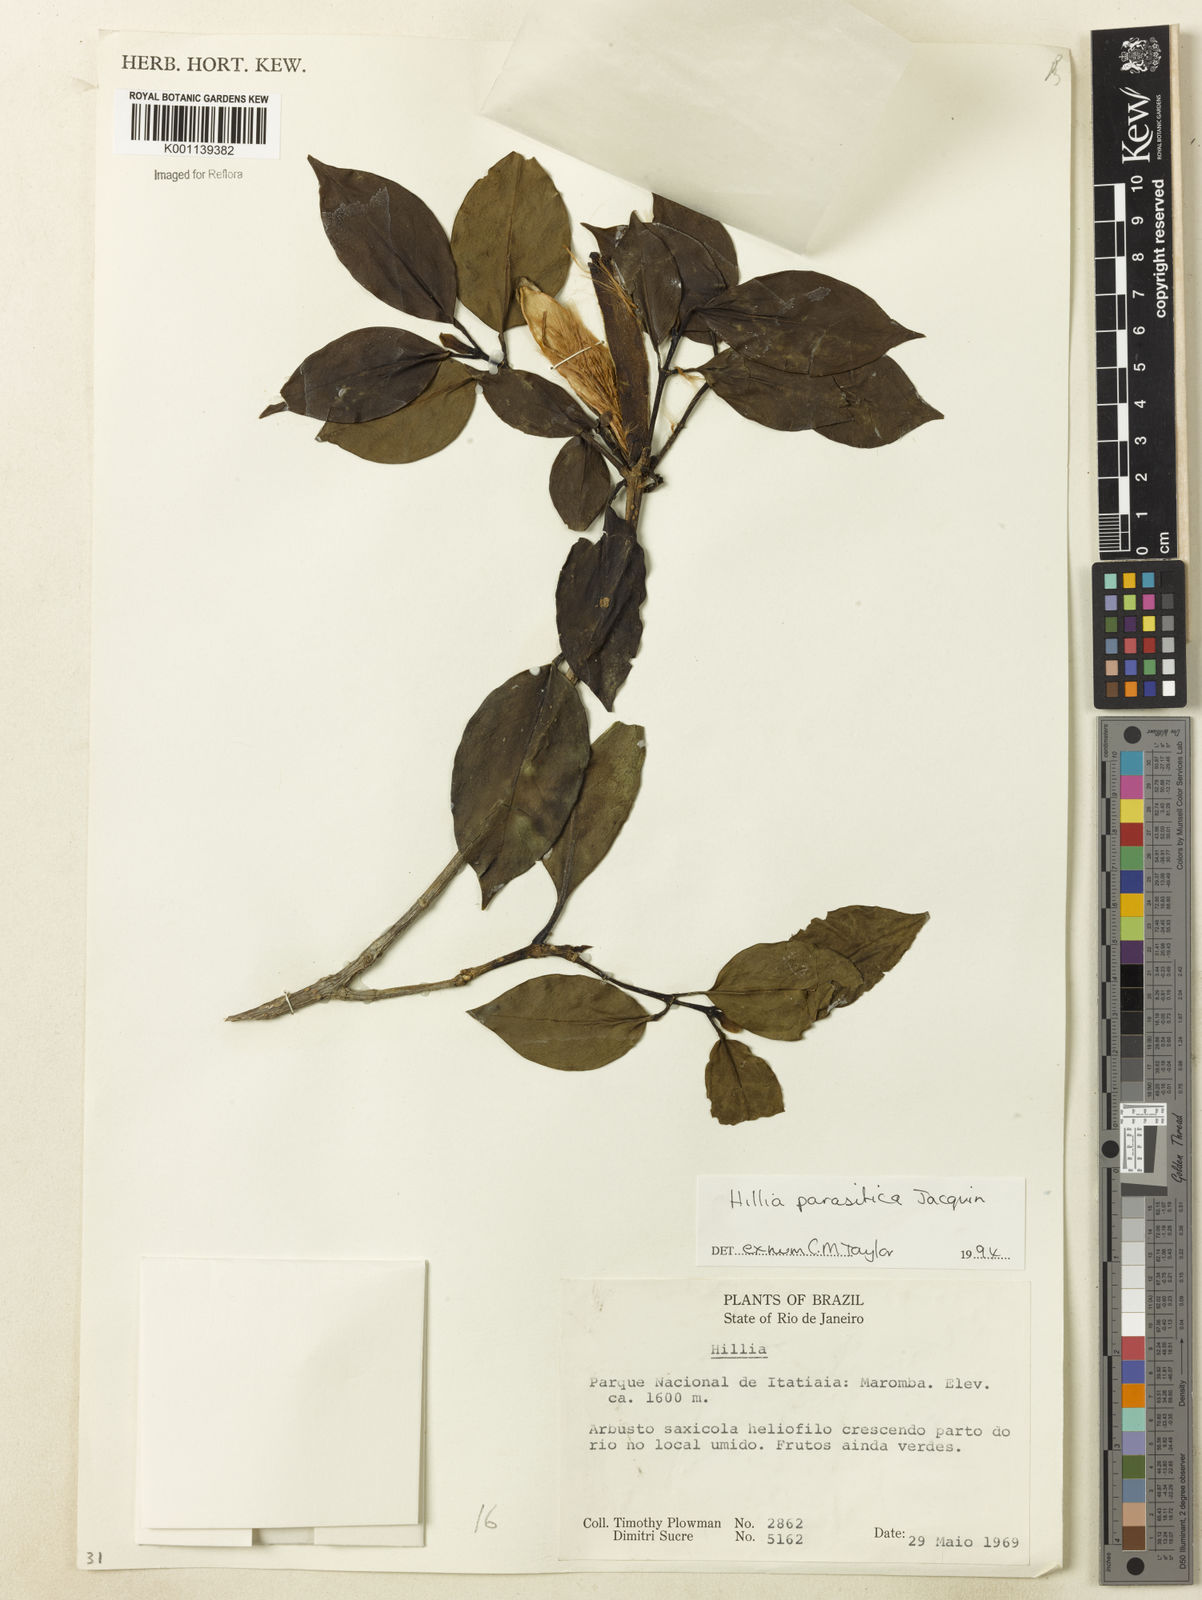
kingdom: Plantae
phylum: Tracheophyta
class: Magnoliopsida
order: Gentianales
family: Rubiaceae
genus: Hillia
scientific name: Hillia parasitica
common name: Morning star
